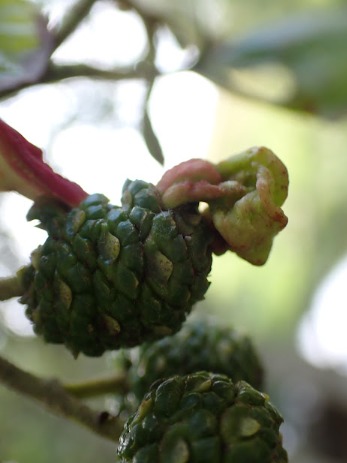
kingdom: Fungi
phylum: Ascomycota
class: Taphrinomycetes
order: Taphrinales
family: Taphrinaceae
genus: Taphrina
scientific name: Taphrina alni
